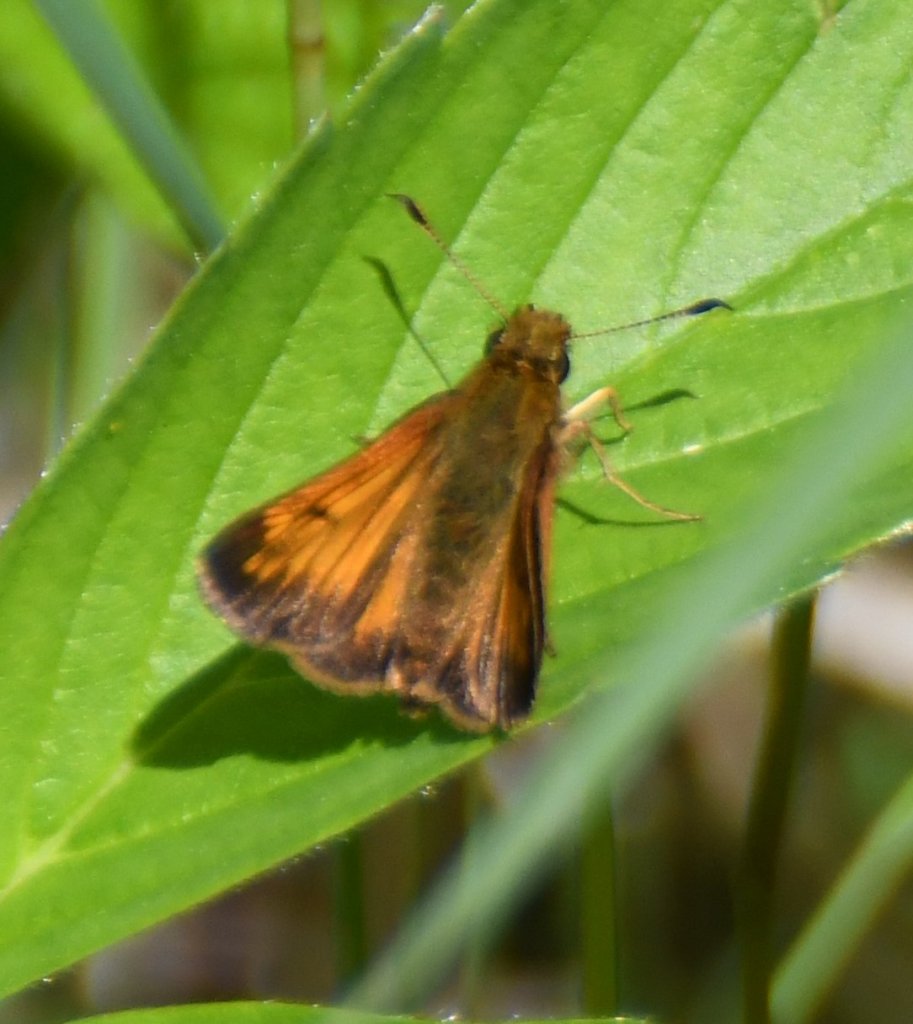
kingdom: Animalia
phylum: Arthropoda
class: Insecta
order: Lepidoptera
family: Hesperiidae
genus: Lon
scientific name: Lon hobomok
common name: Hobomok Skipper
